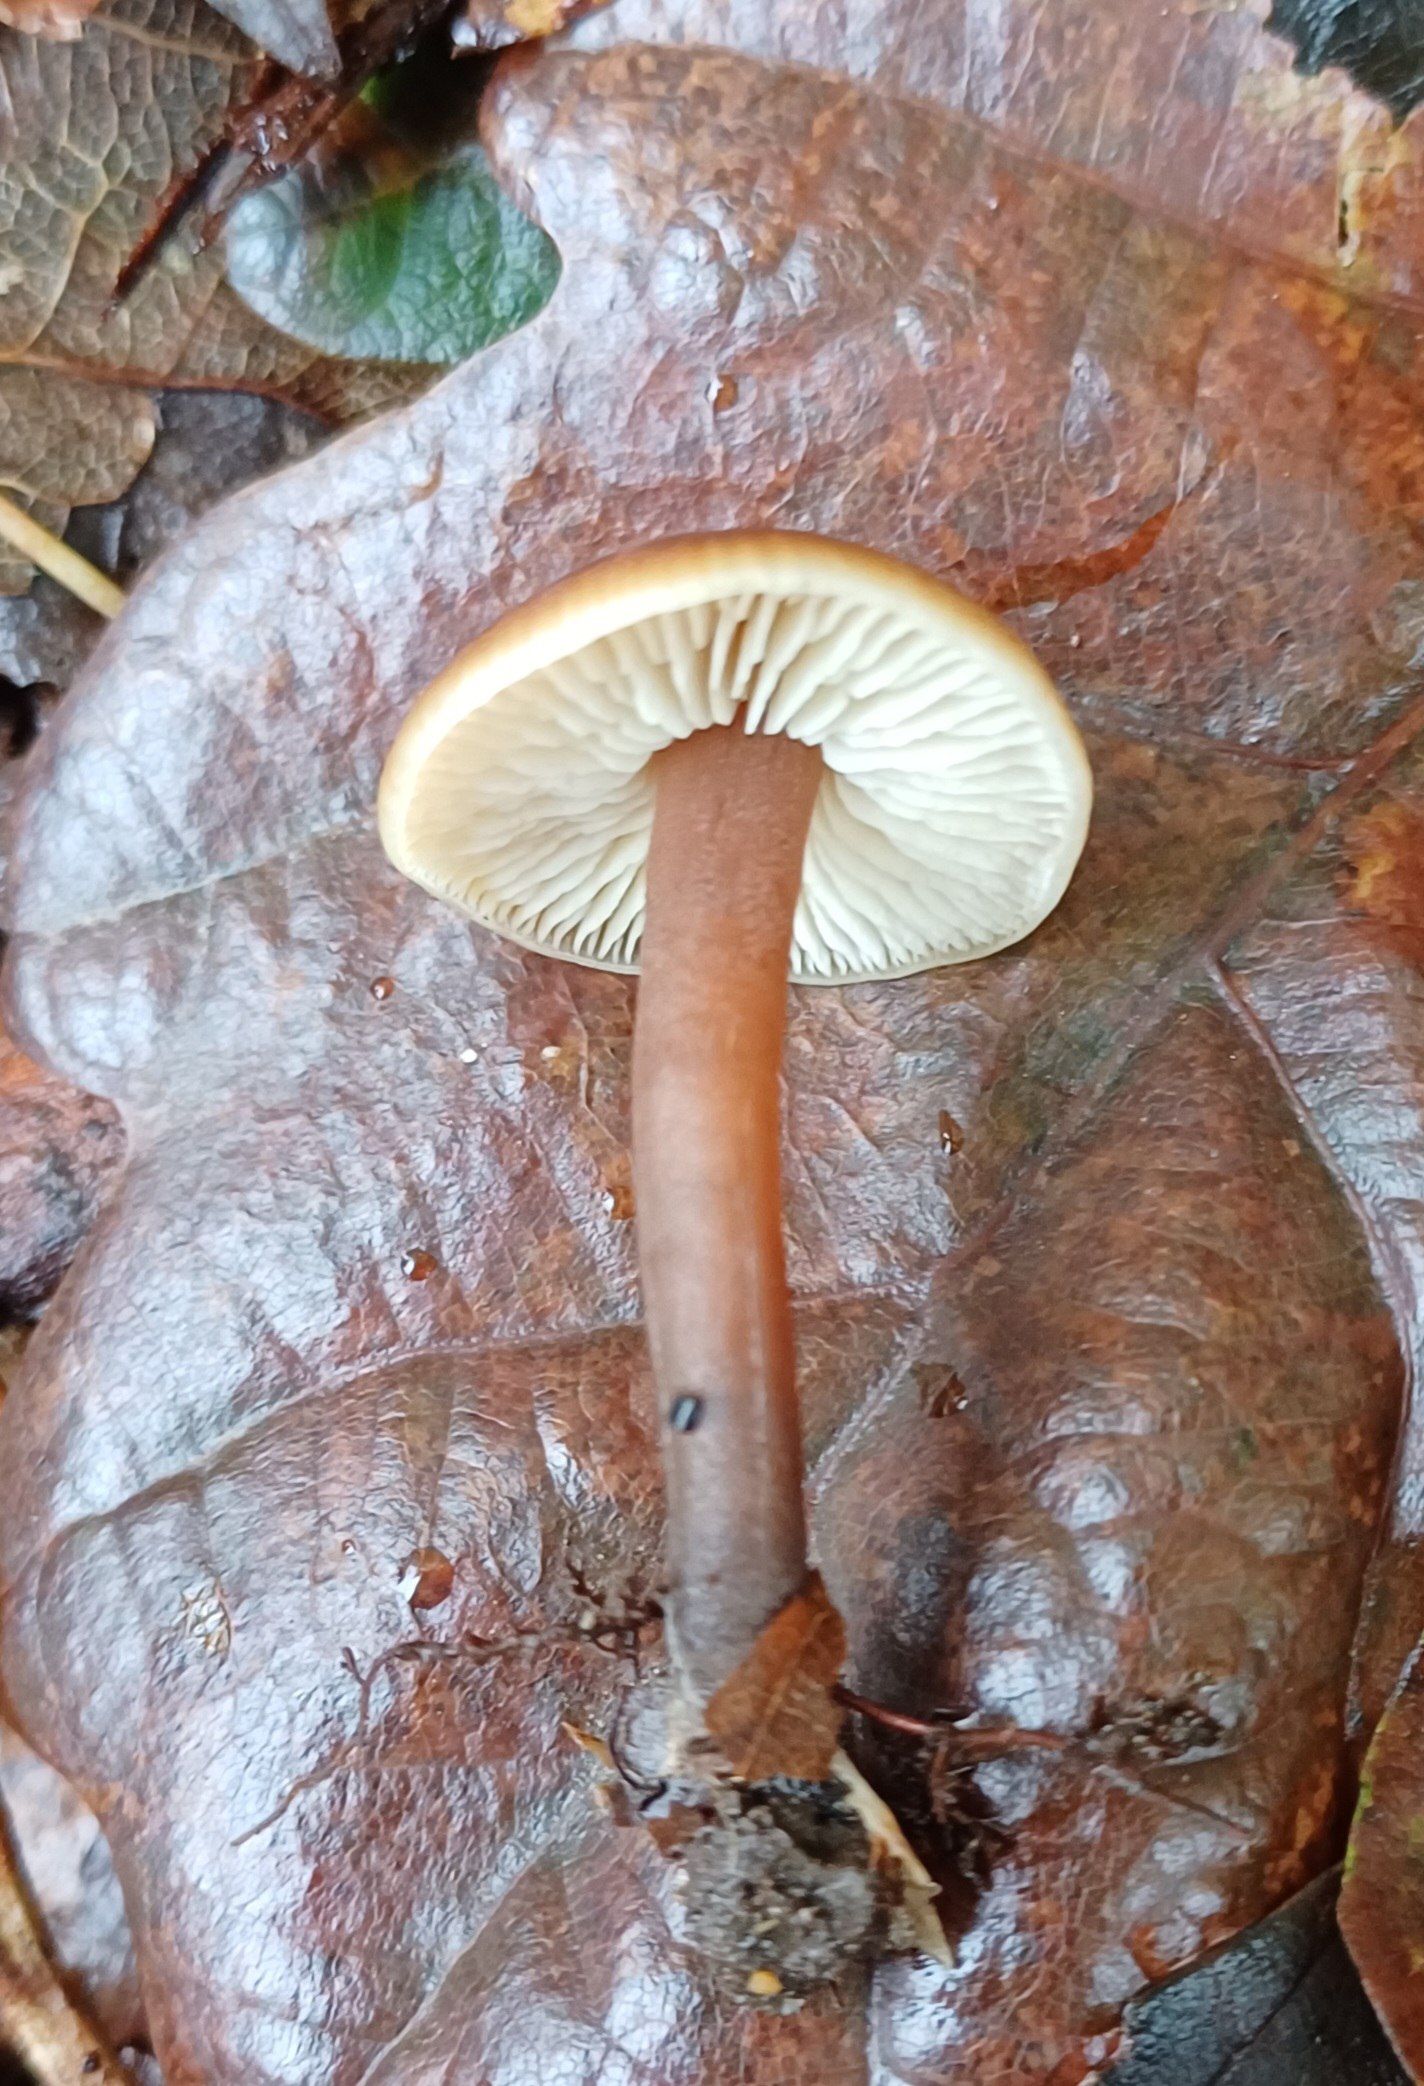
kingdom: Fungi
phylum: Basidiomycota
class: Agaricomycetes
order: Agaricales
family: Macrocystidiaceae
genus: Macrocystidia
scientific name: Macrocystidia cucumis
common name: agurkehat
